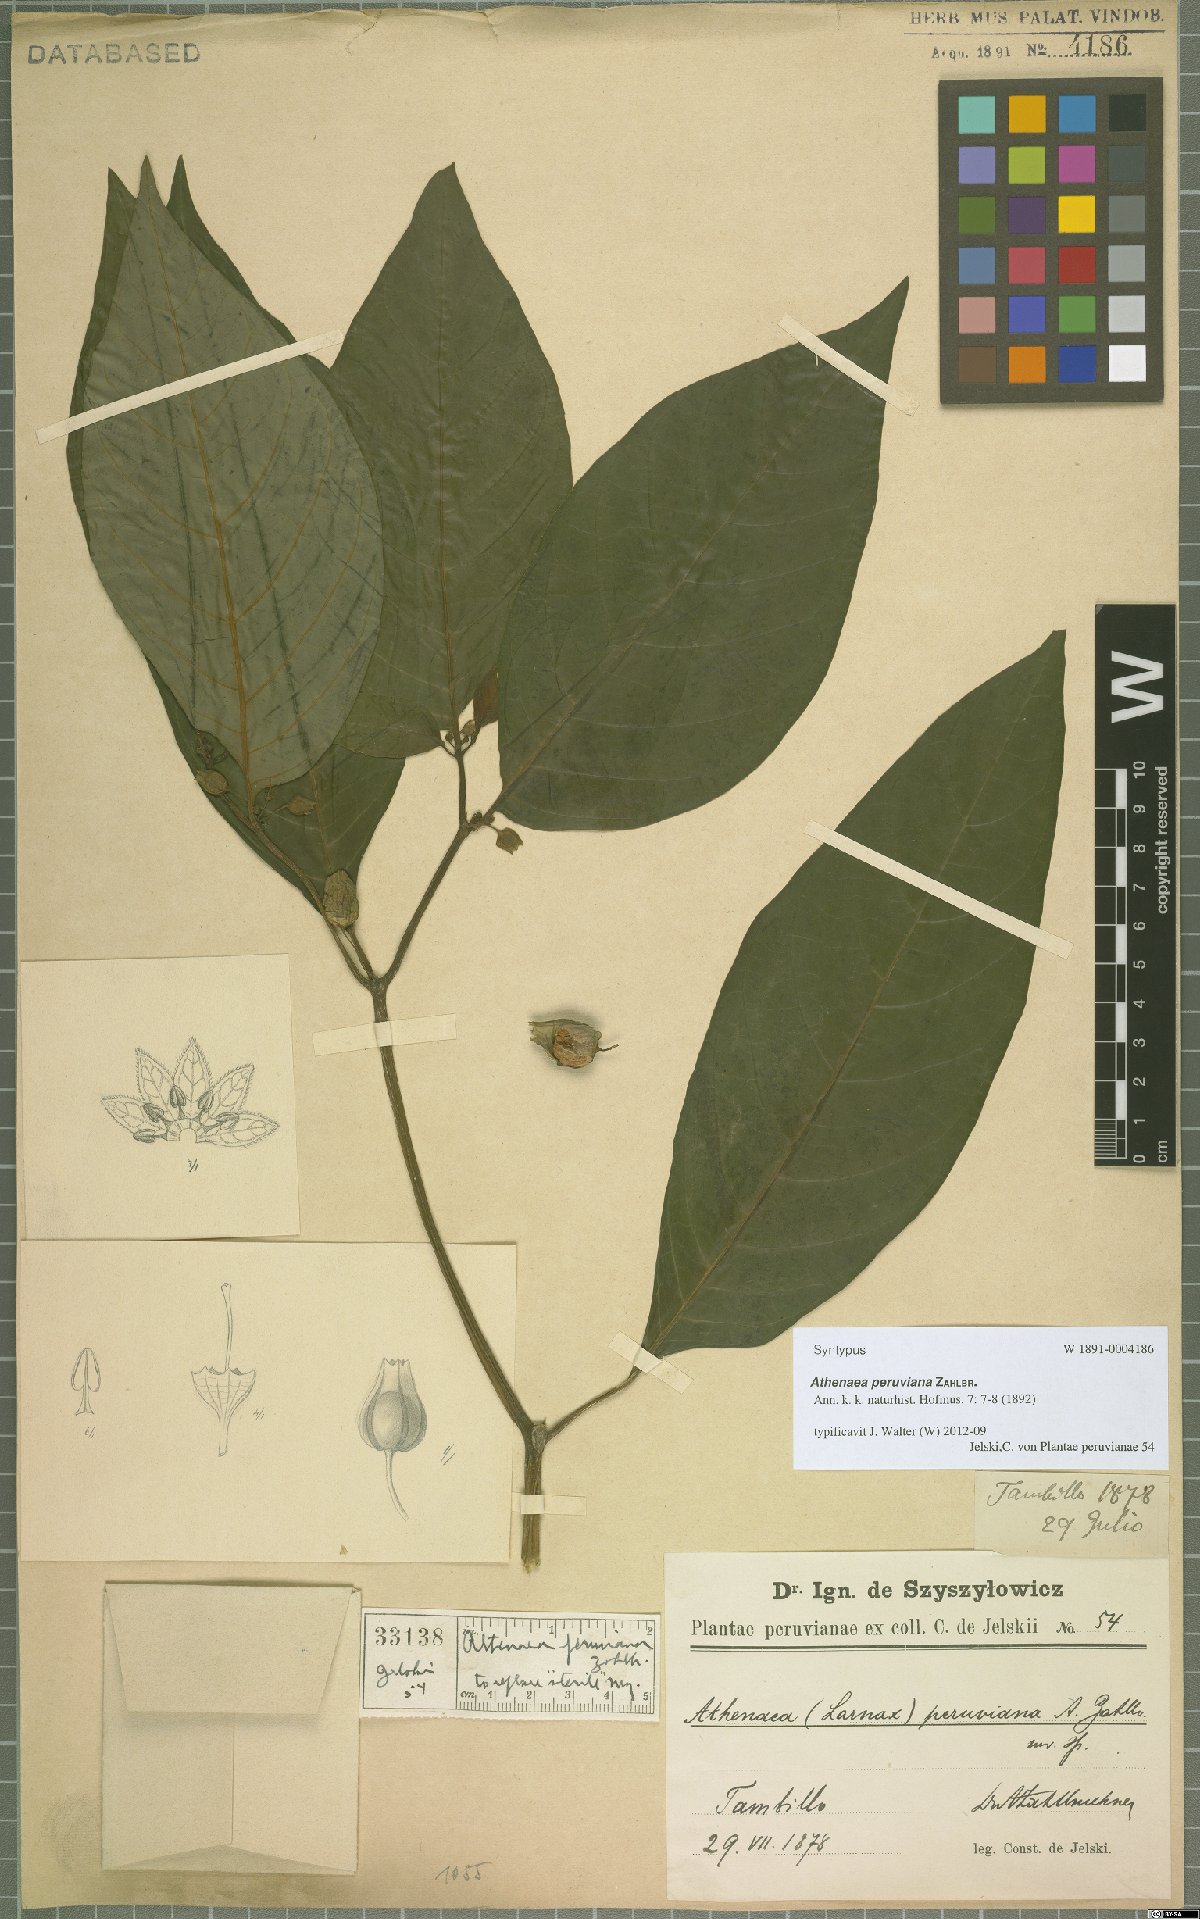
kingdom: Plantae
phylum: Tracheophyta
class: Magnoliopsida
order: Solanales
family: Solanaceae
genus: Deprea
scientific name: Deprea peruviana
